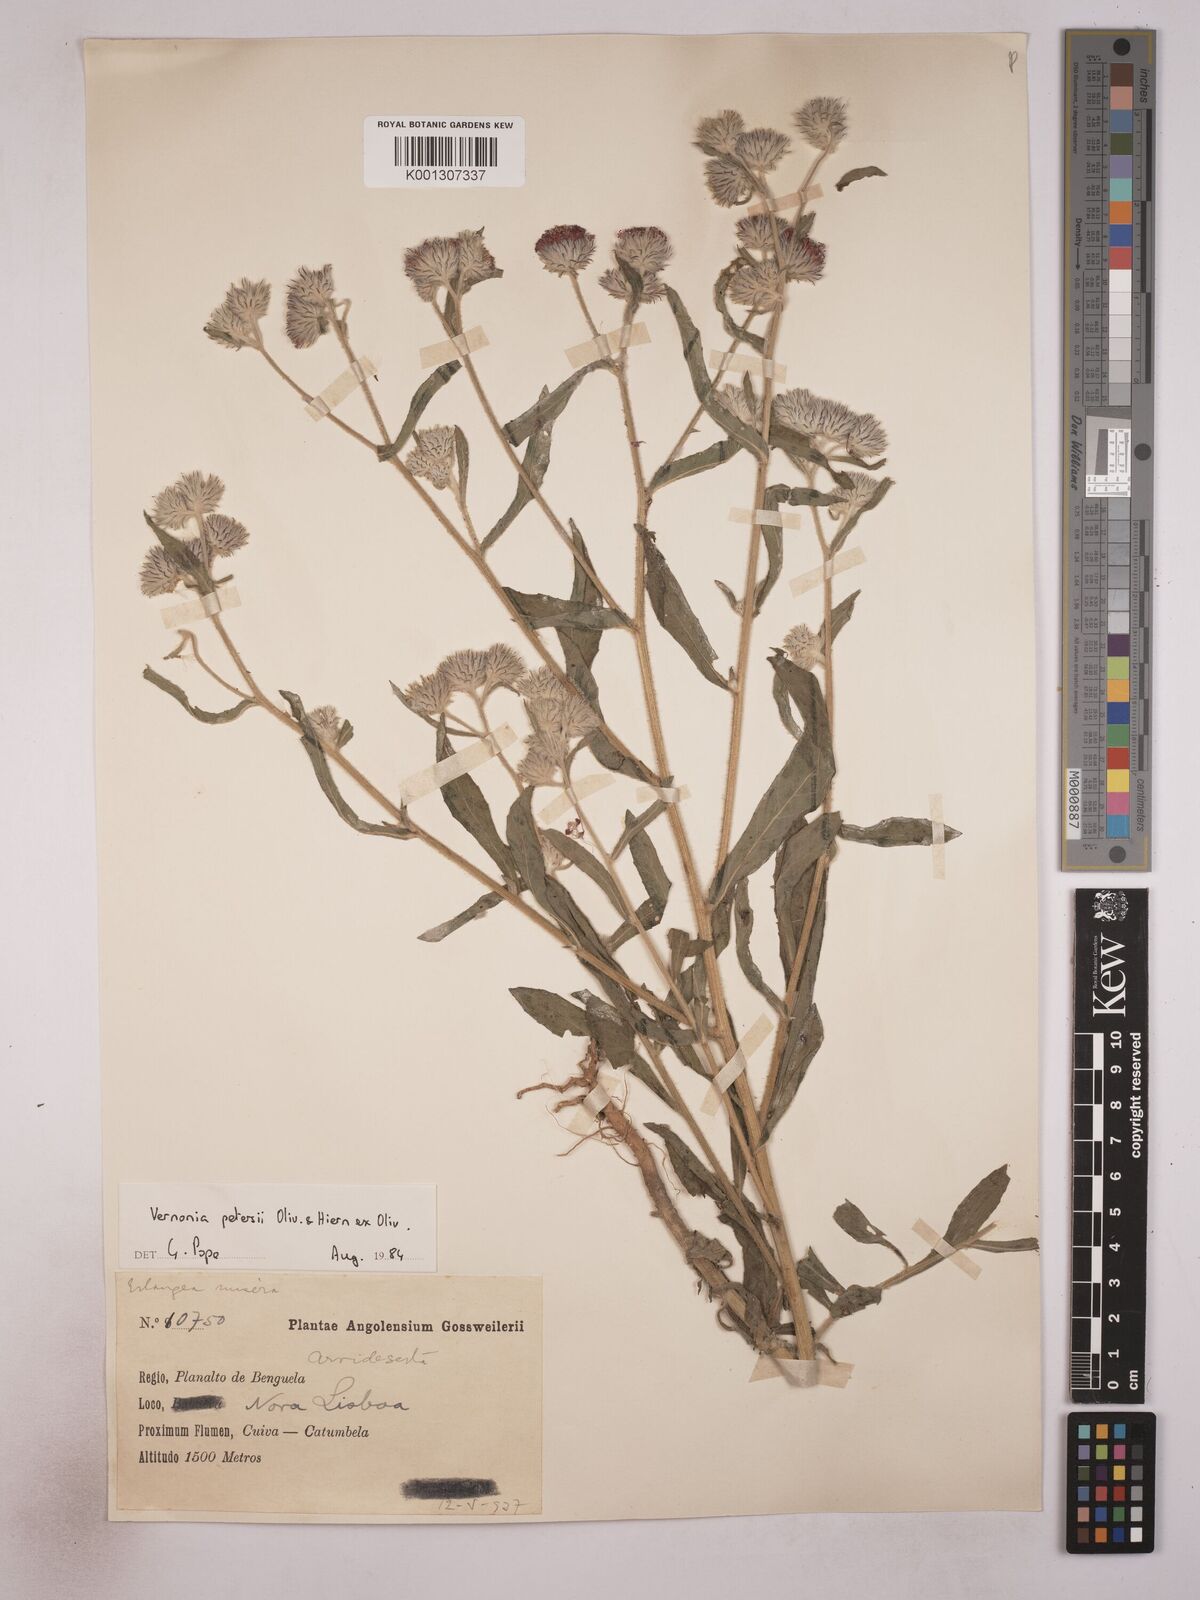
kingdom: Plantae
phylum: Tracheophyta
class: Magnoliopsida
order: Asterales
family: Asteraceae
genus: Vernoniastrum
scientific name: Vernoniastrum latifolium
